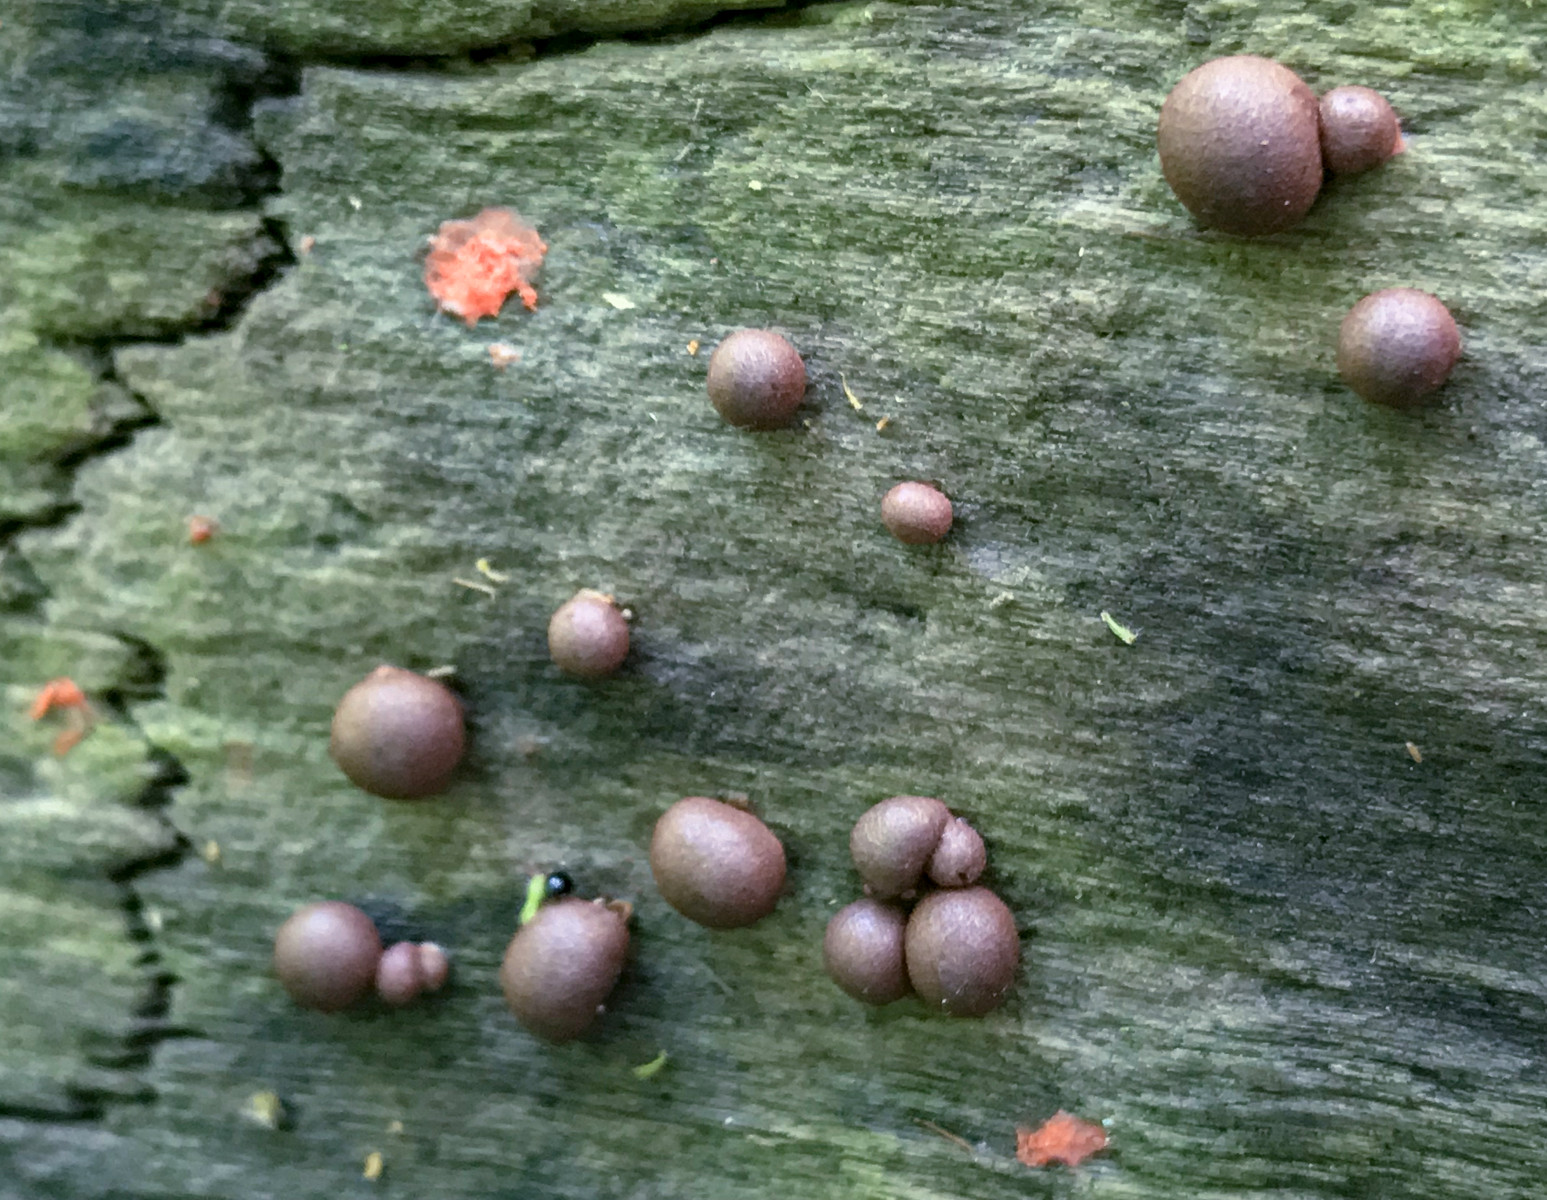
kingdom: Protozoa
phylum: Mycetozoa
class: Myxomycetes
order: Cribrariales
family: Tubiferaceae
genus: Lycogala
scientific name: Lycogala epidendrum
